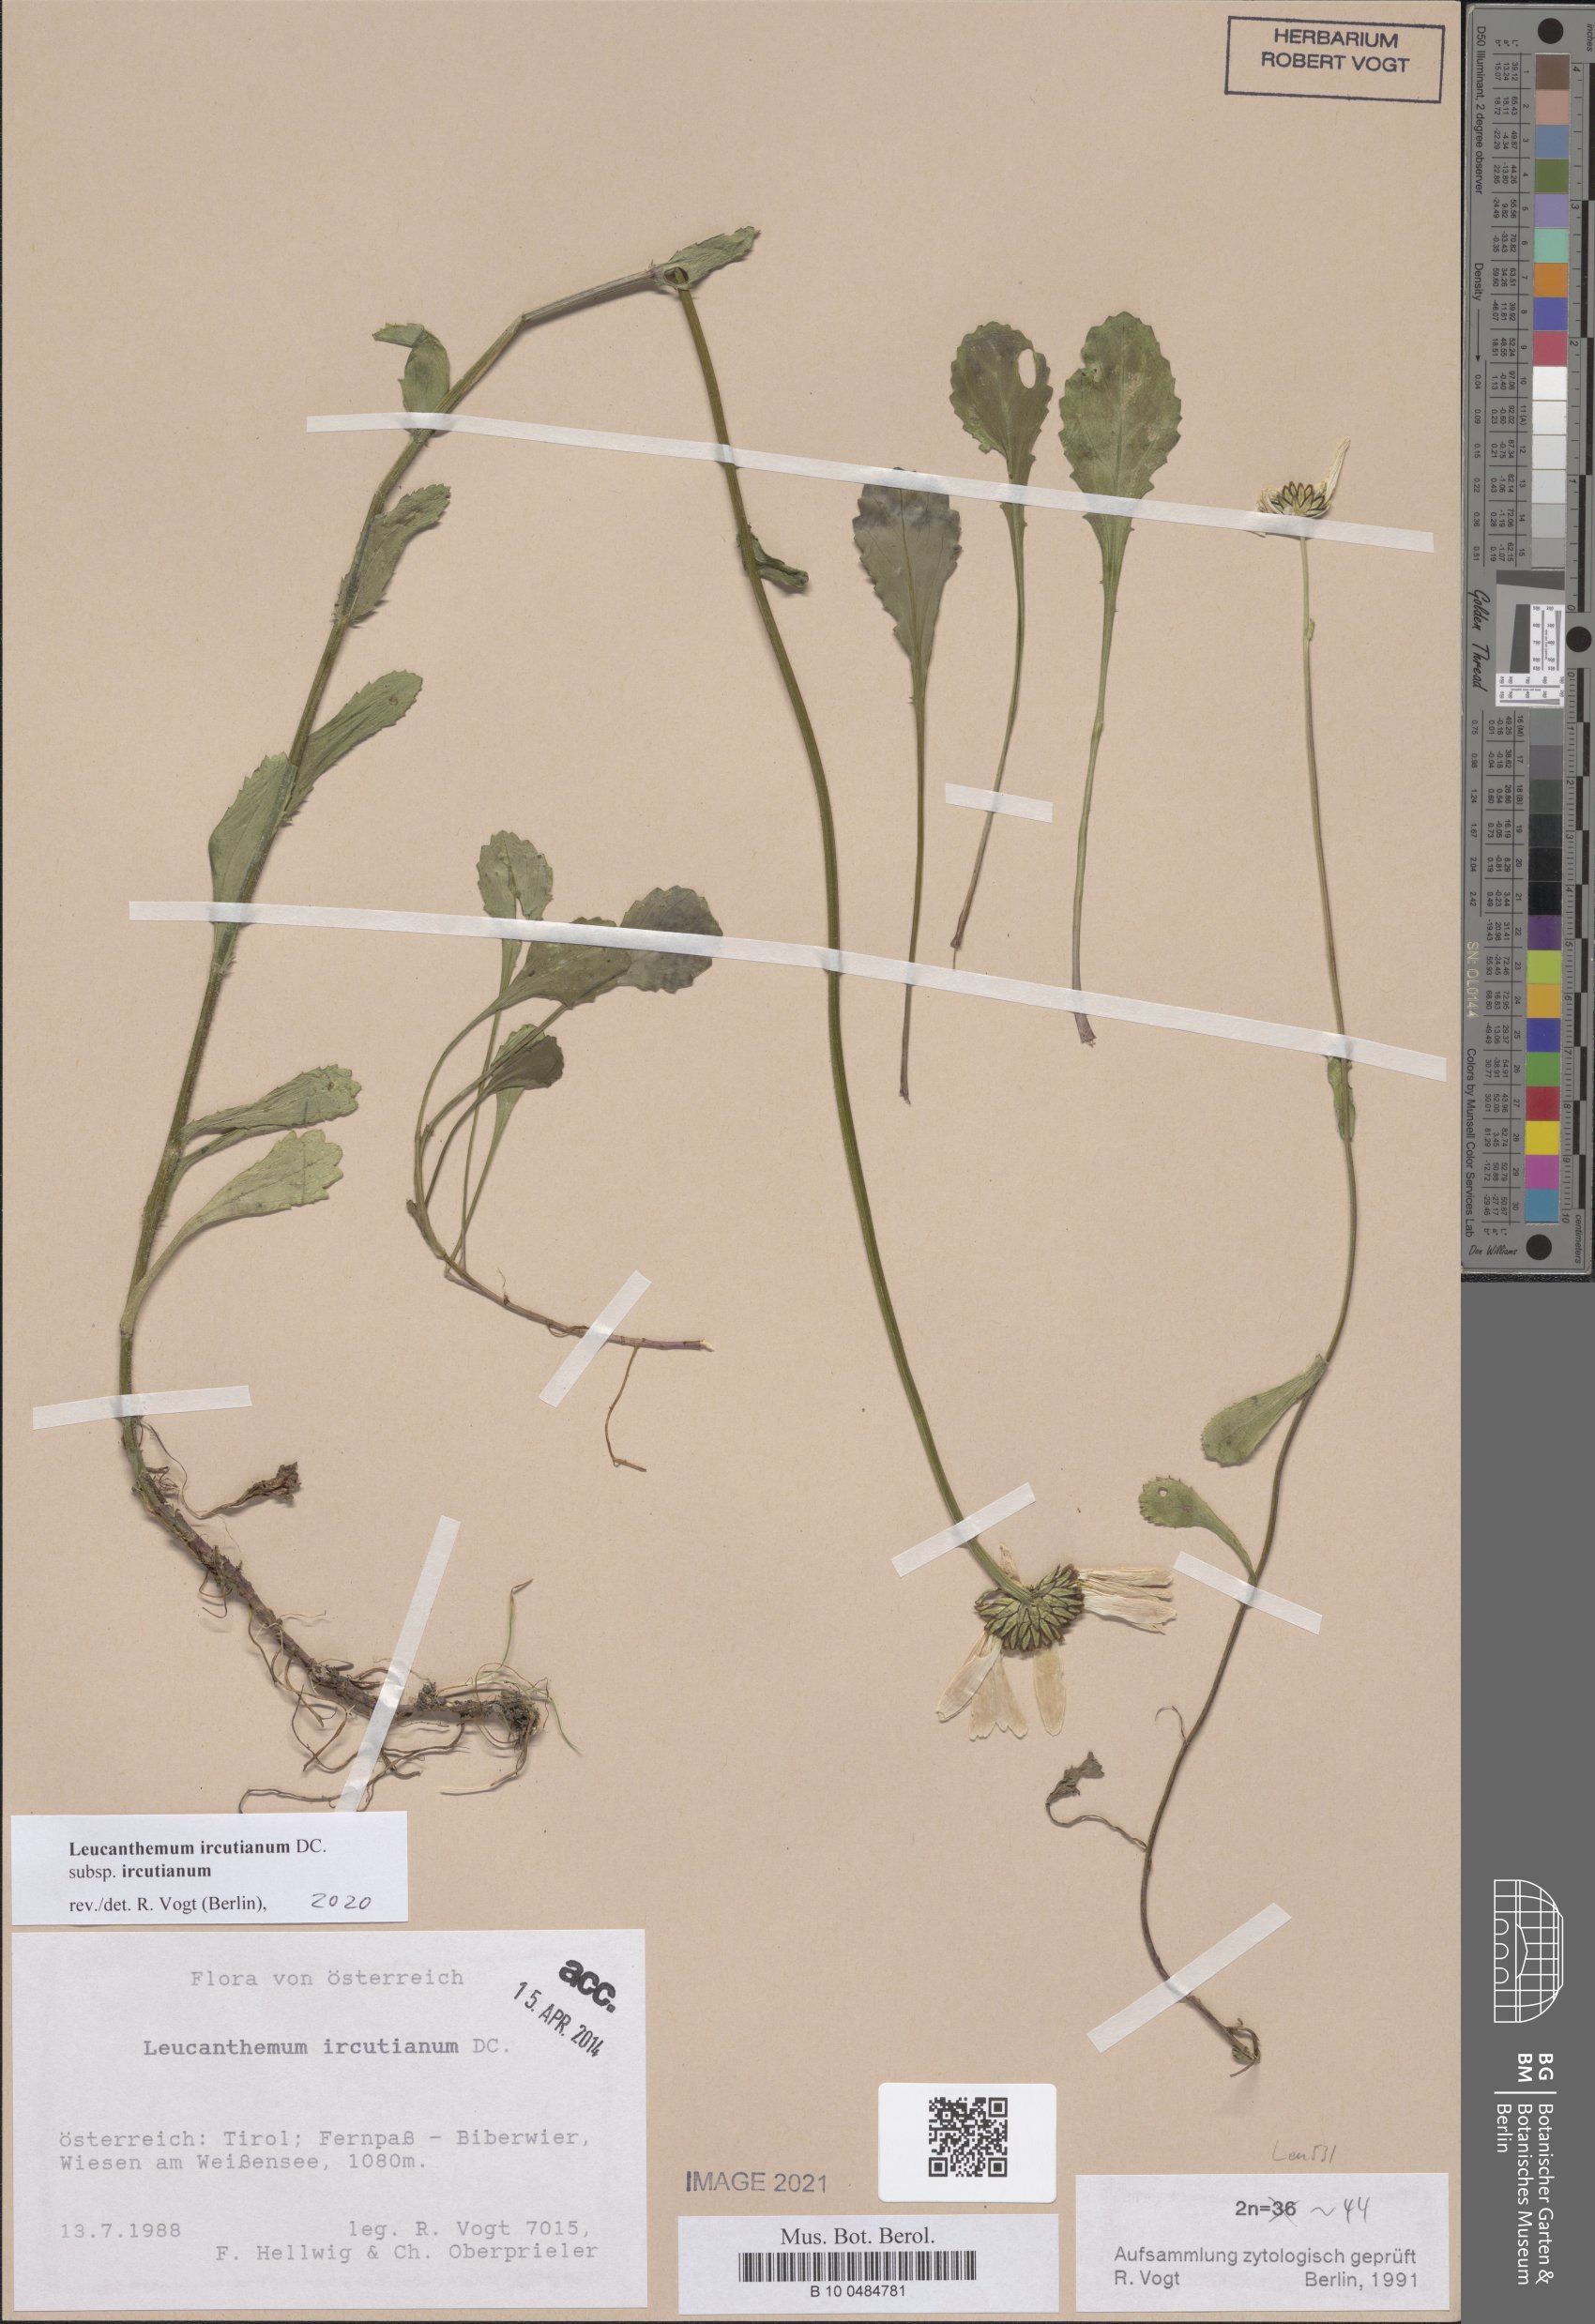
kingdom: Plantae
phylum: Tracheophyta
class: Magnoliopsida
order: Asterales
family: Asteraceae
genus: Leucanthemum
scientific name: Leucanthemum ircutianum
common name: Daisy
